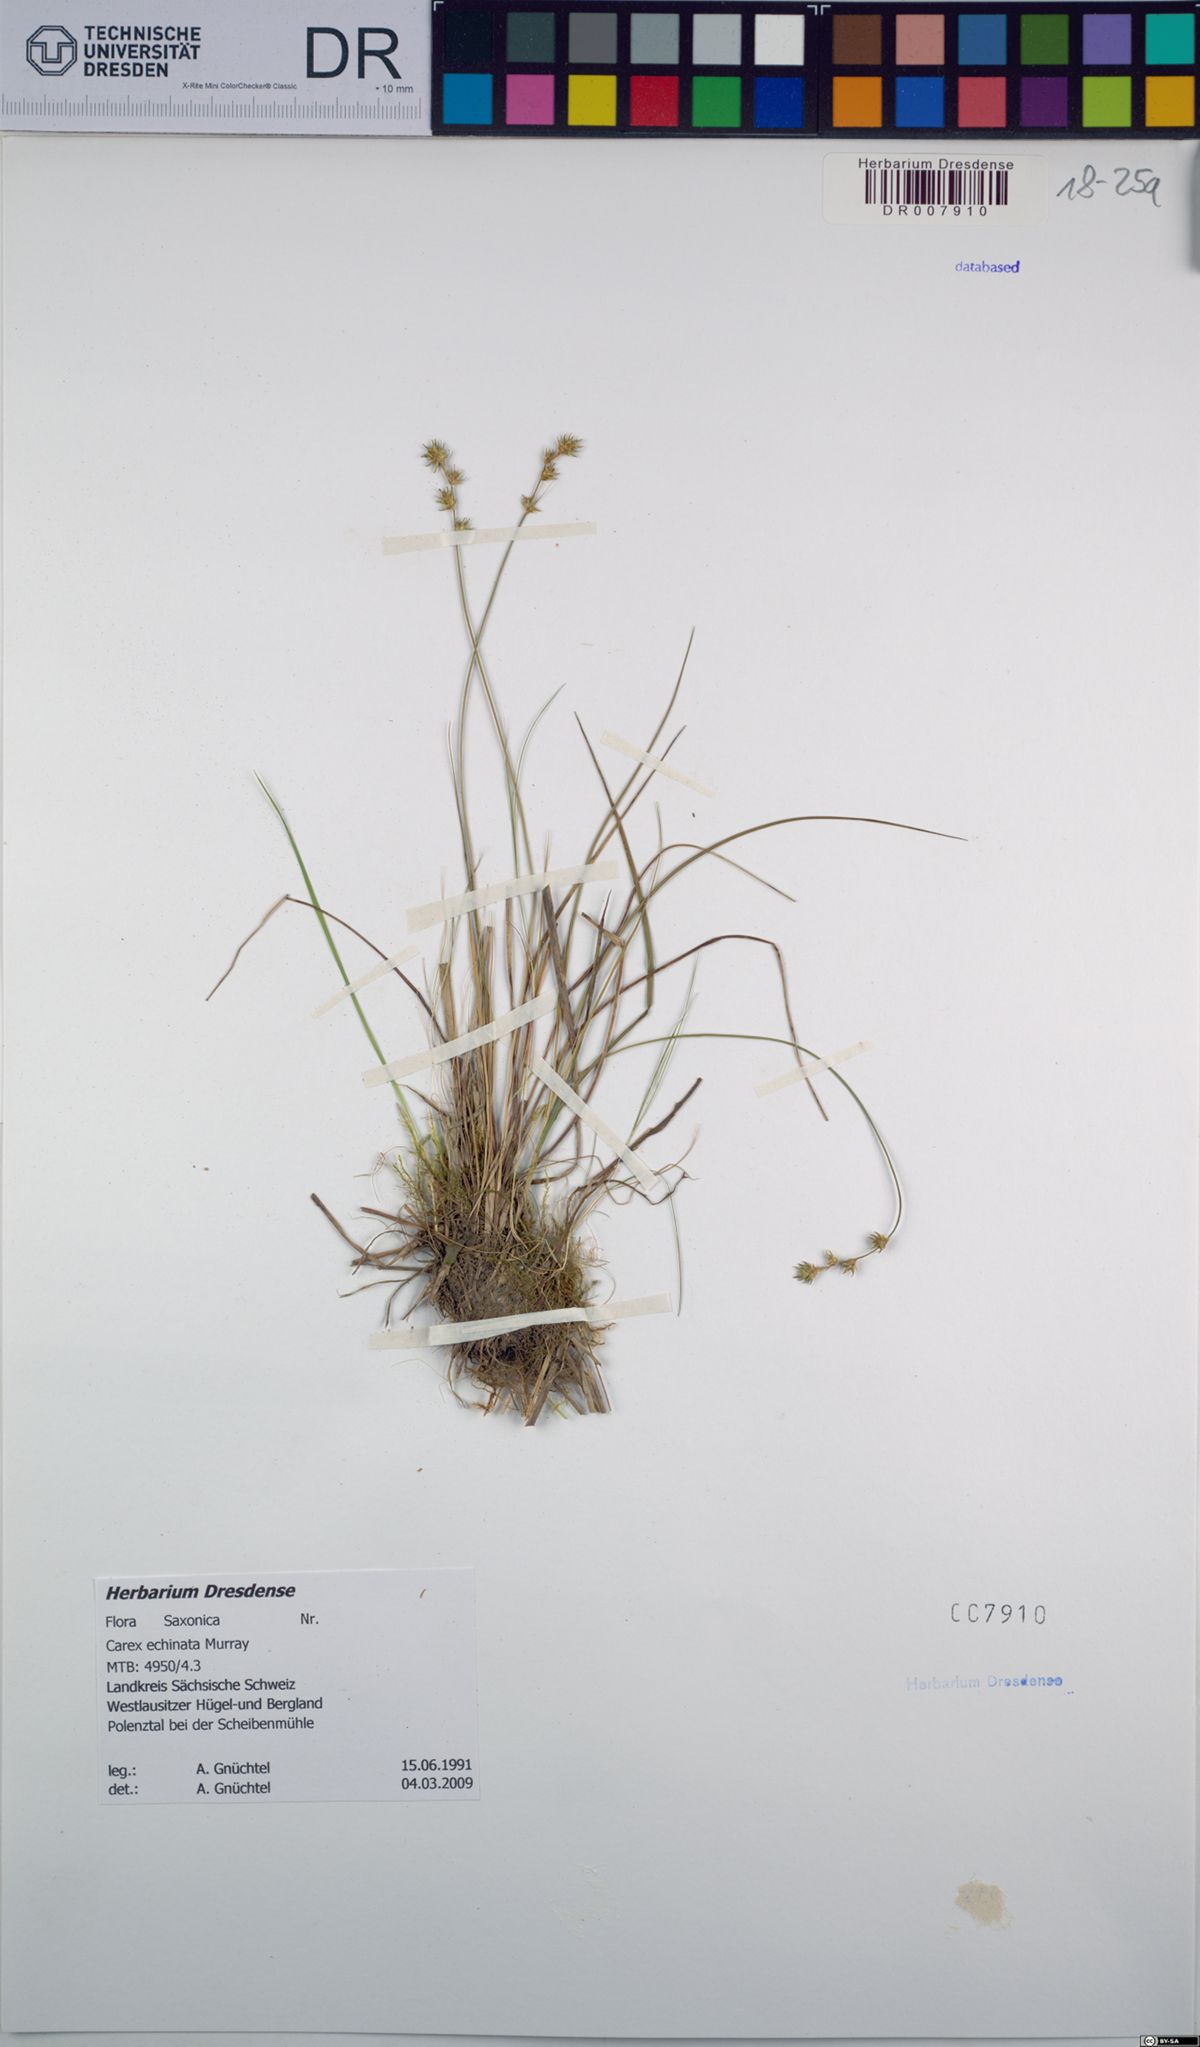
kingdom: Plantae
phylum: Tracheophyta
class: Liliopsida
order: Poales
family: Cyperaceae
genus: Carex
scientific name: Carex echinata
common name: Star sedge
